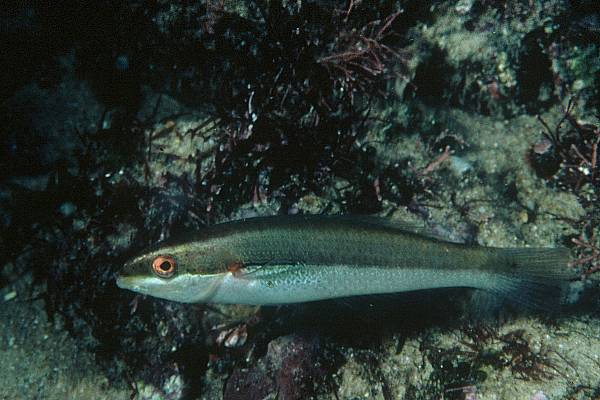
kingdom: Animalia
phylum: Chordata
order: Perciformes
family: Labridae
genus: Stethojulis
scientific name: Stethojulis interrupta
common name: Cutribbon wrasse
